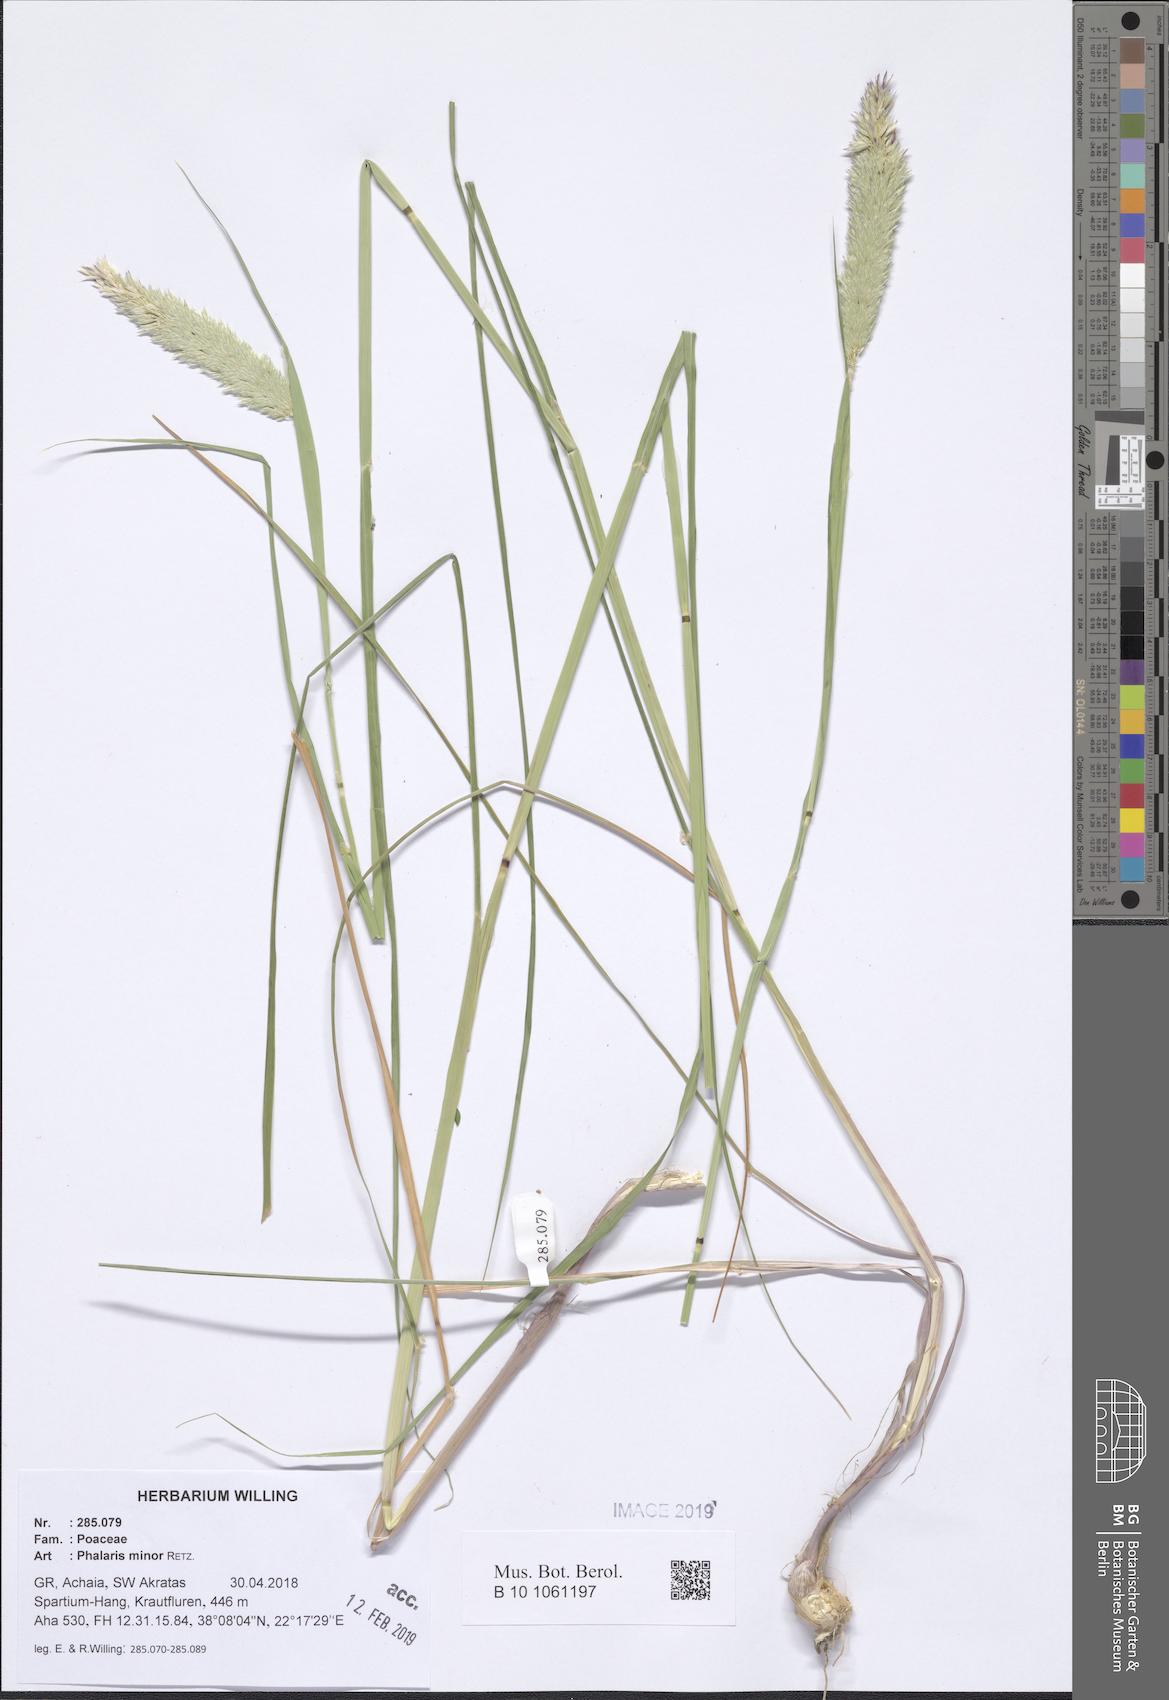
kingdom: Plantae
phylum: Tracheophyta
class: Liliopsida
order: Poales
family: Poaceae
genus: Phalaris
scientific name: Phalaris minor
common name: Littleseed canarygrass
